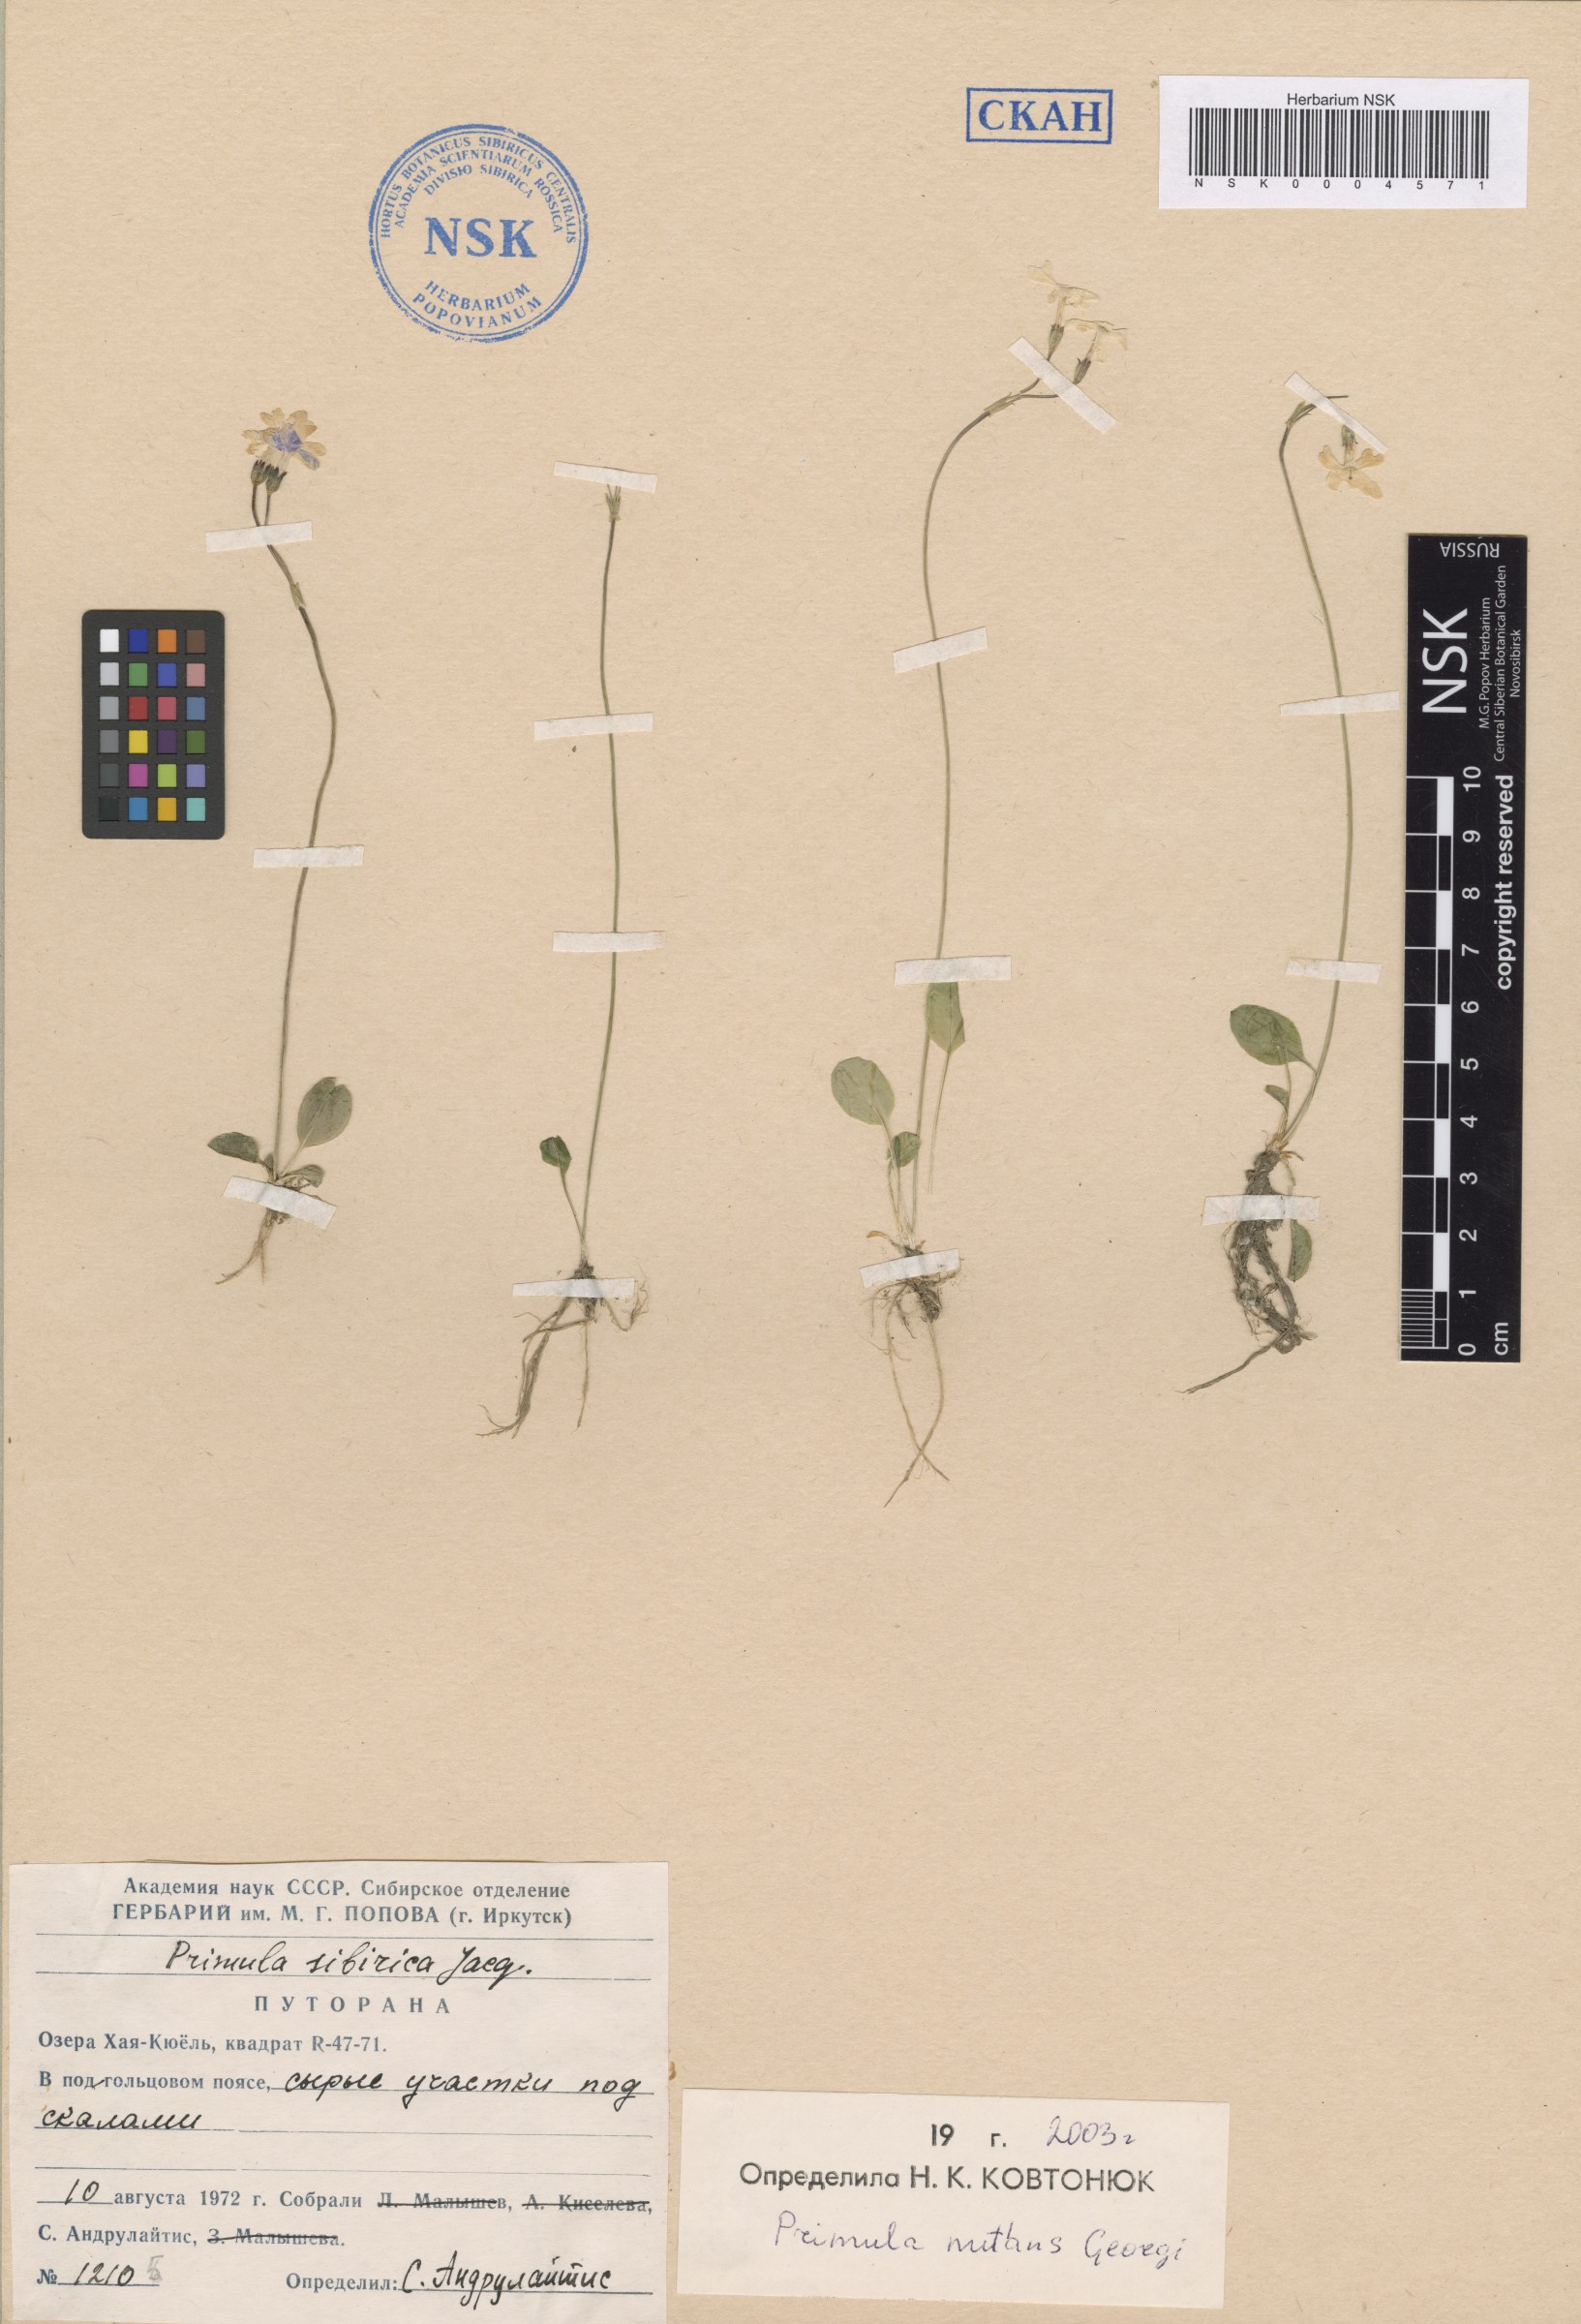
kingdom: Plantae
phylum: Tracheophyta
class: Magnoliopsida
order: Ericales
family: Primulaceae
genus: Primula
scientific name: Primula nutans
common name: Siberian primrose
